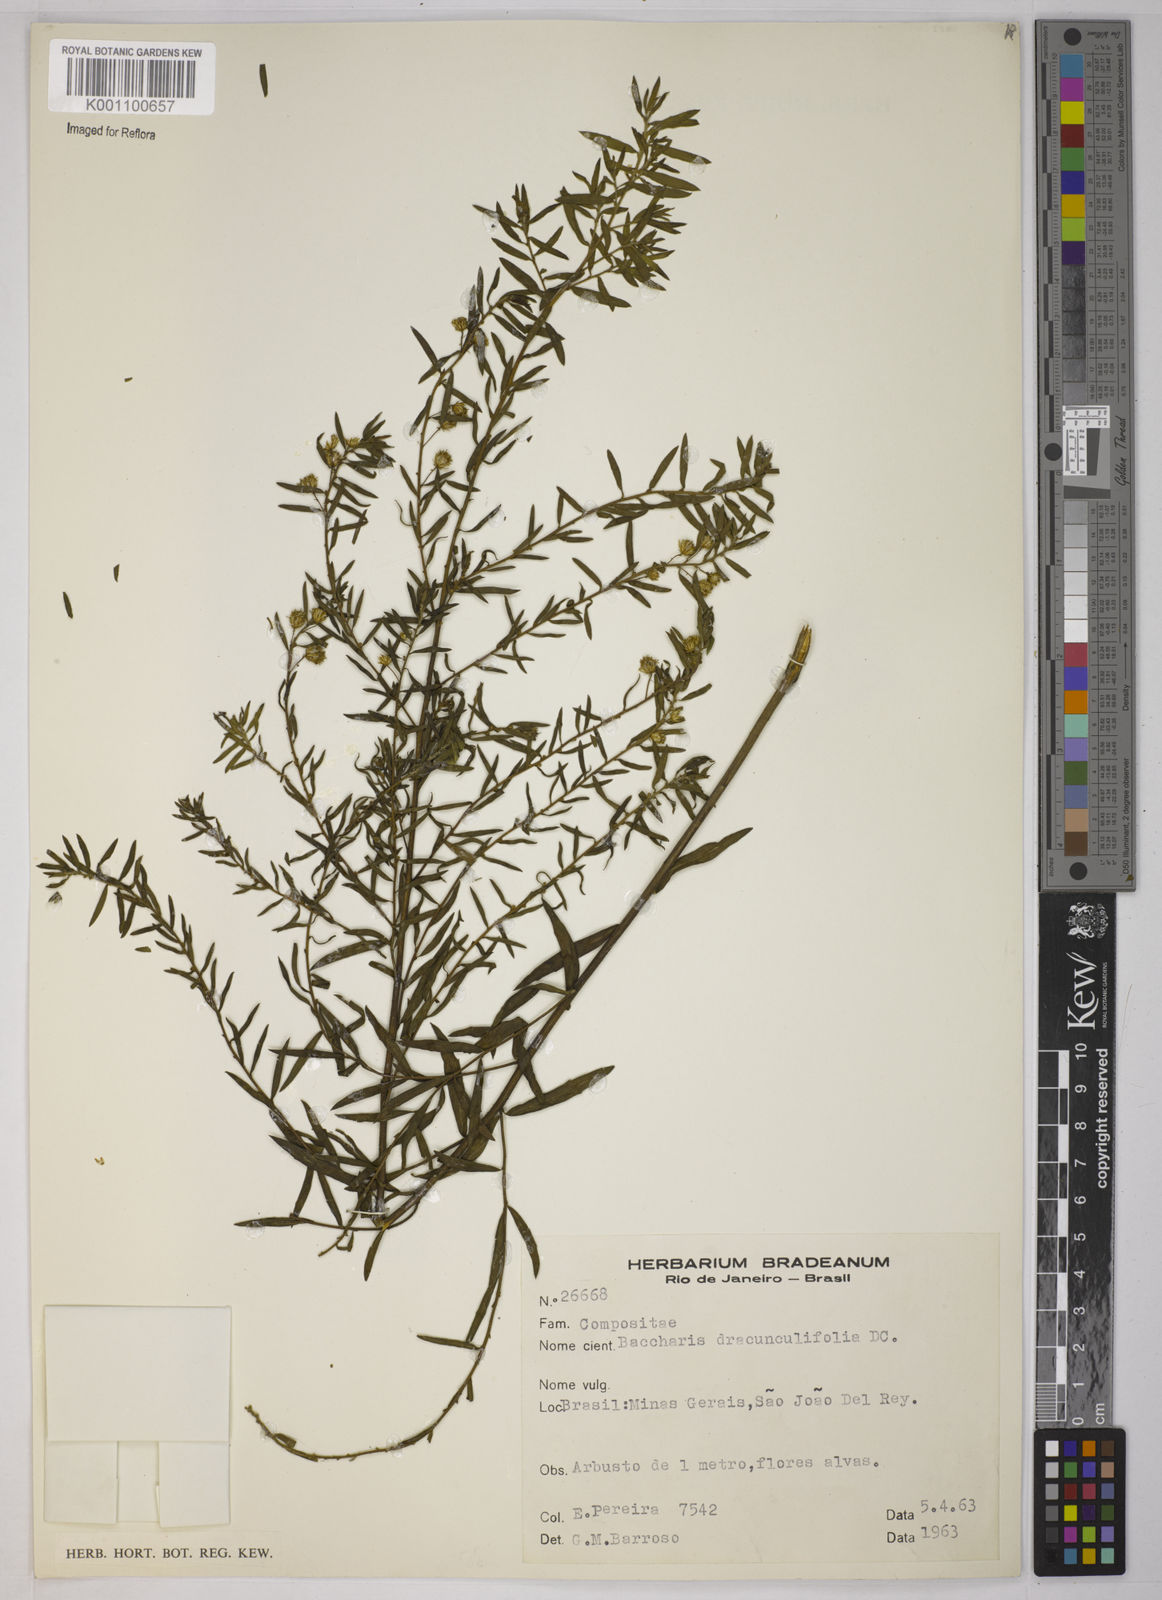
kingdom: Plantae
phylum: Tracheophyta
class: Magnoliopsida
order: Asterales
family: Asteraceae
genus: Baccharis
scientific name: Baccharis dracunculifolia
